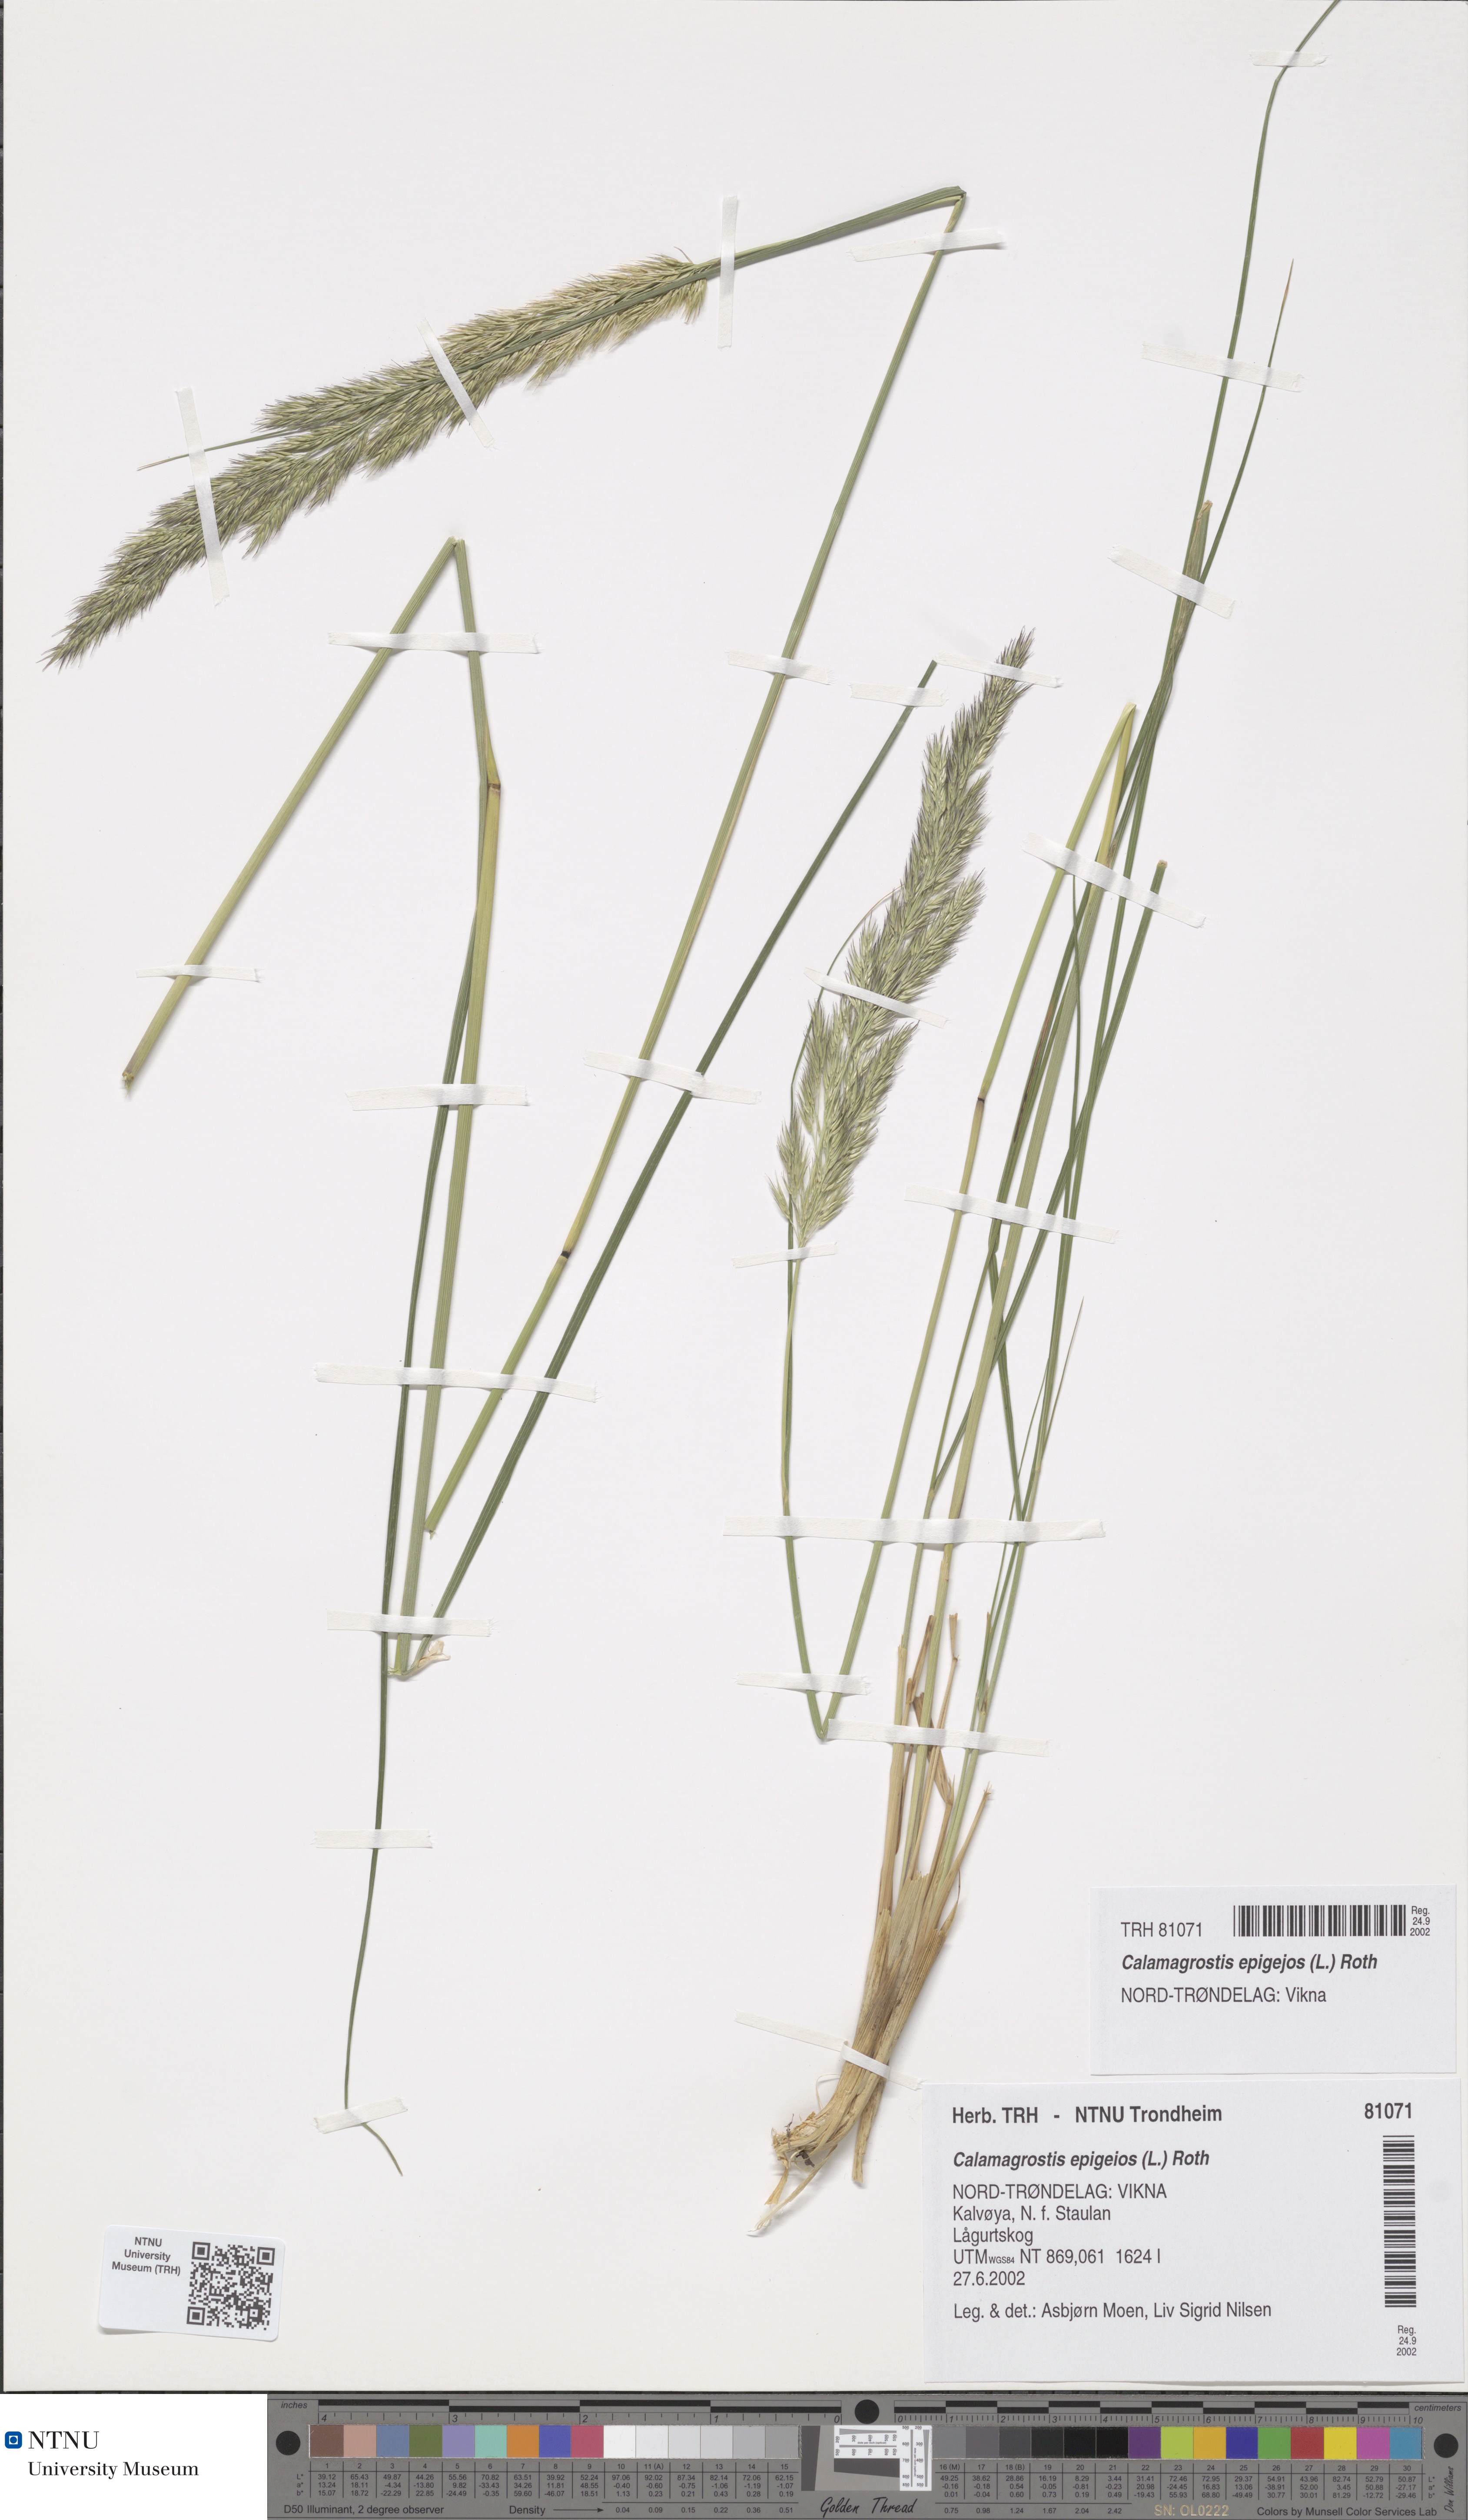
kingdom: Plantae
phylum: Tracheophyta
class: Liliopsida
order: Poales
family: Poaceae
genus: Calamagrostis
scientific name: Calamagrostis epigejos
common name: Wood small-reed
